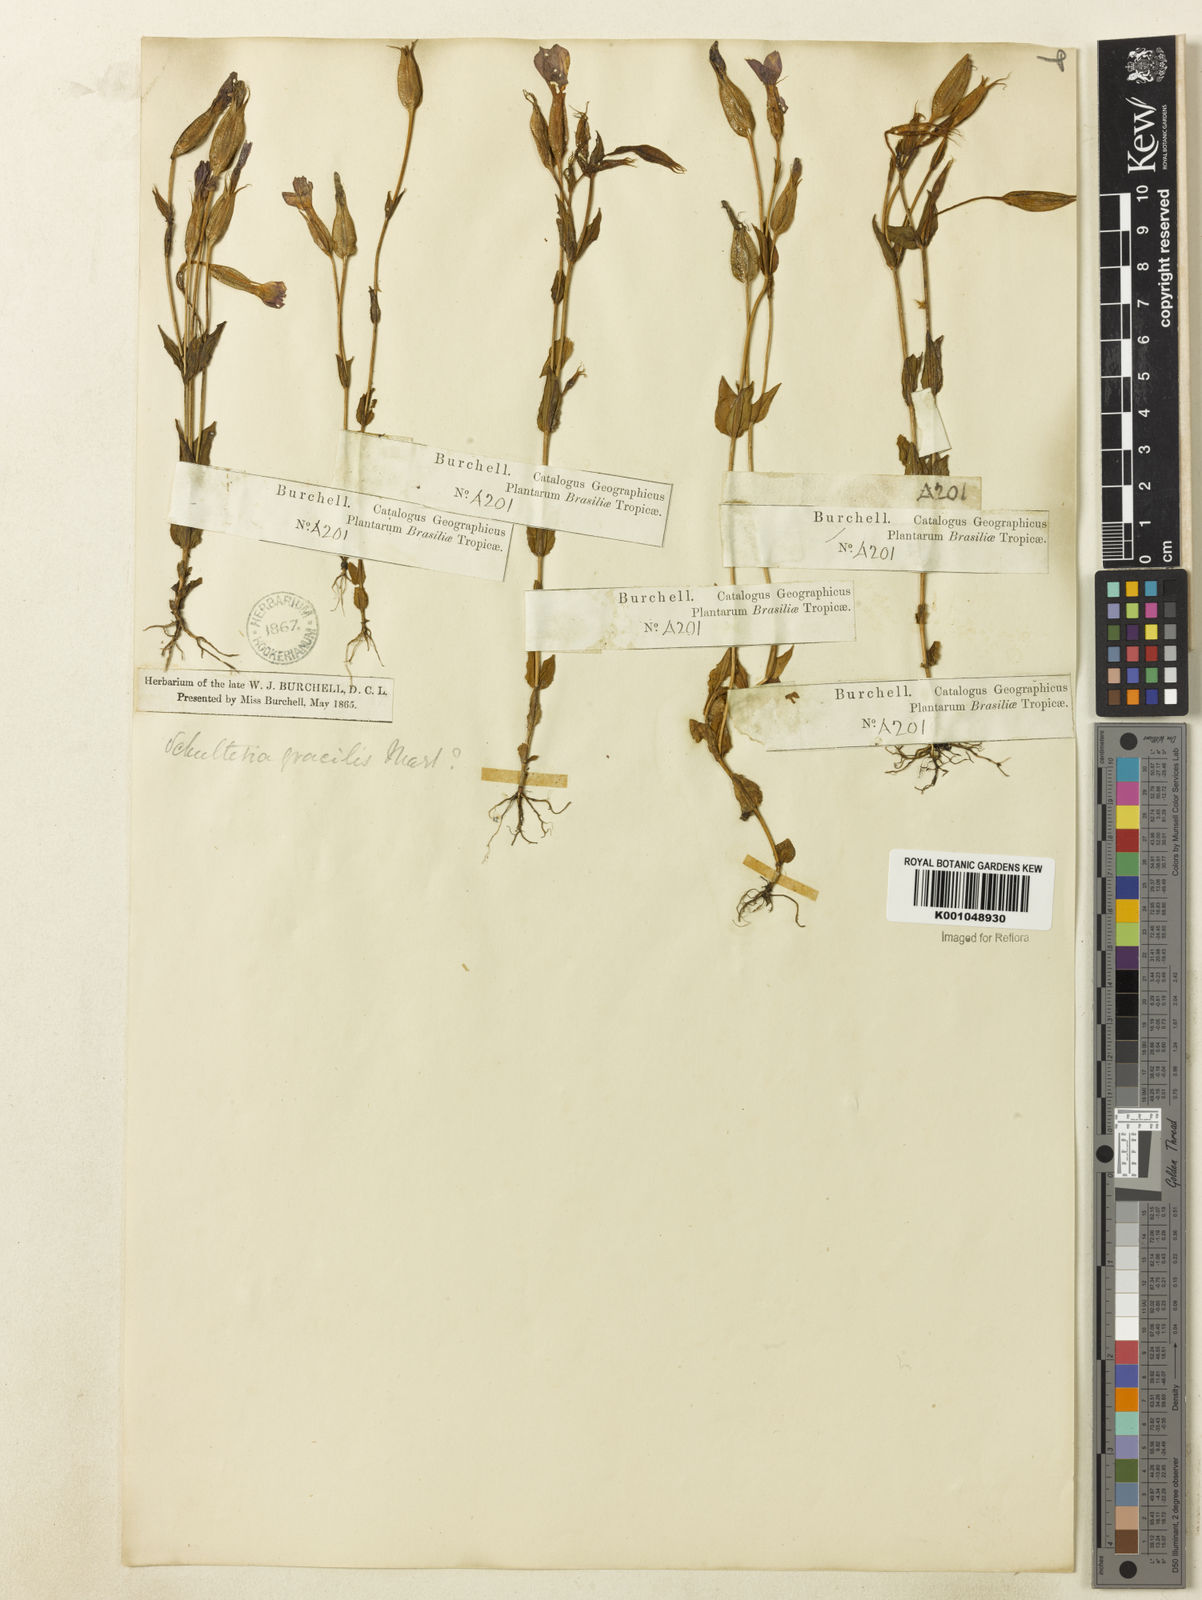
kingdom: Plantae
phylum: Tracheophyta
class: Magnoliopsida
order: Gentianales
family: Gentianaceae
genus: Schultesia
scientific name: Schultesia
